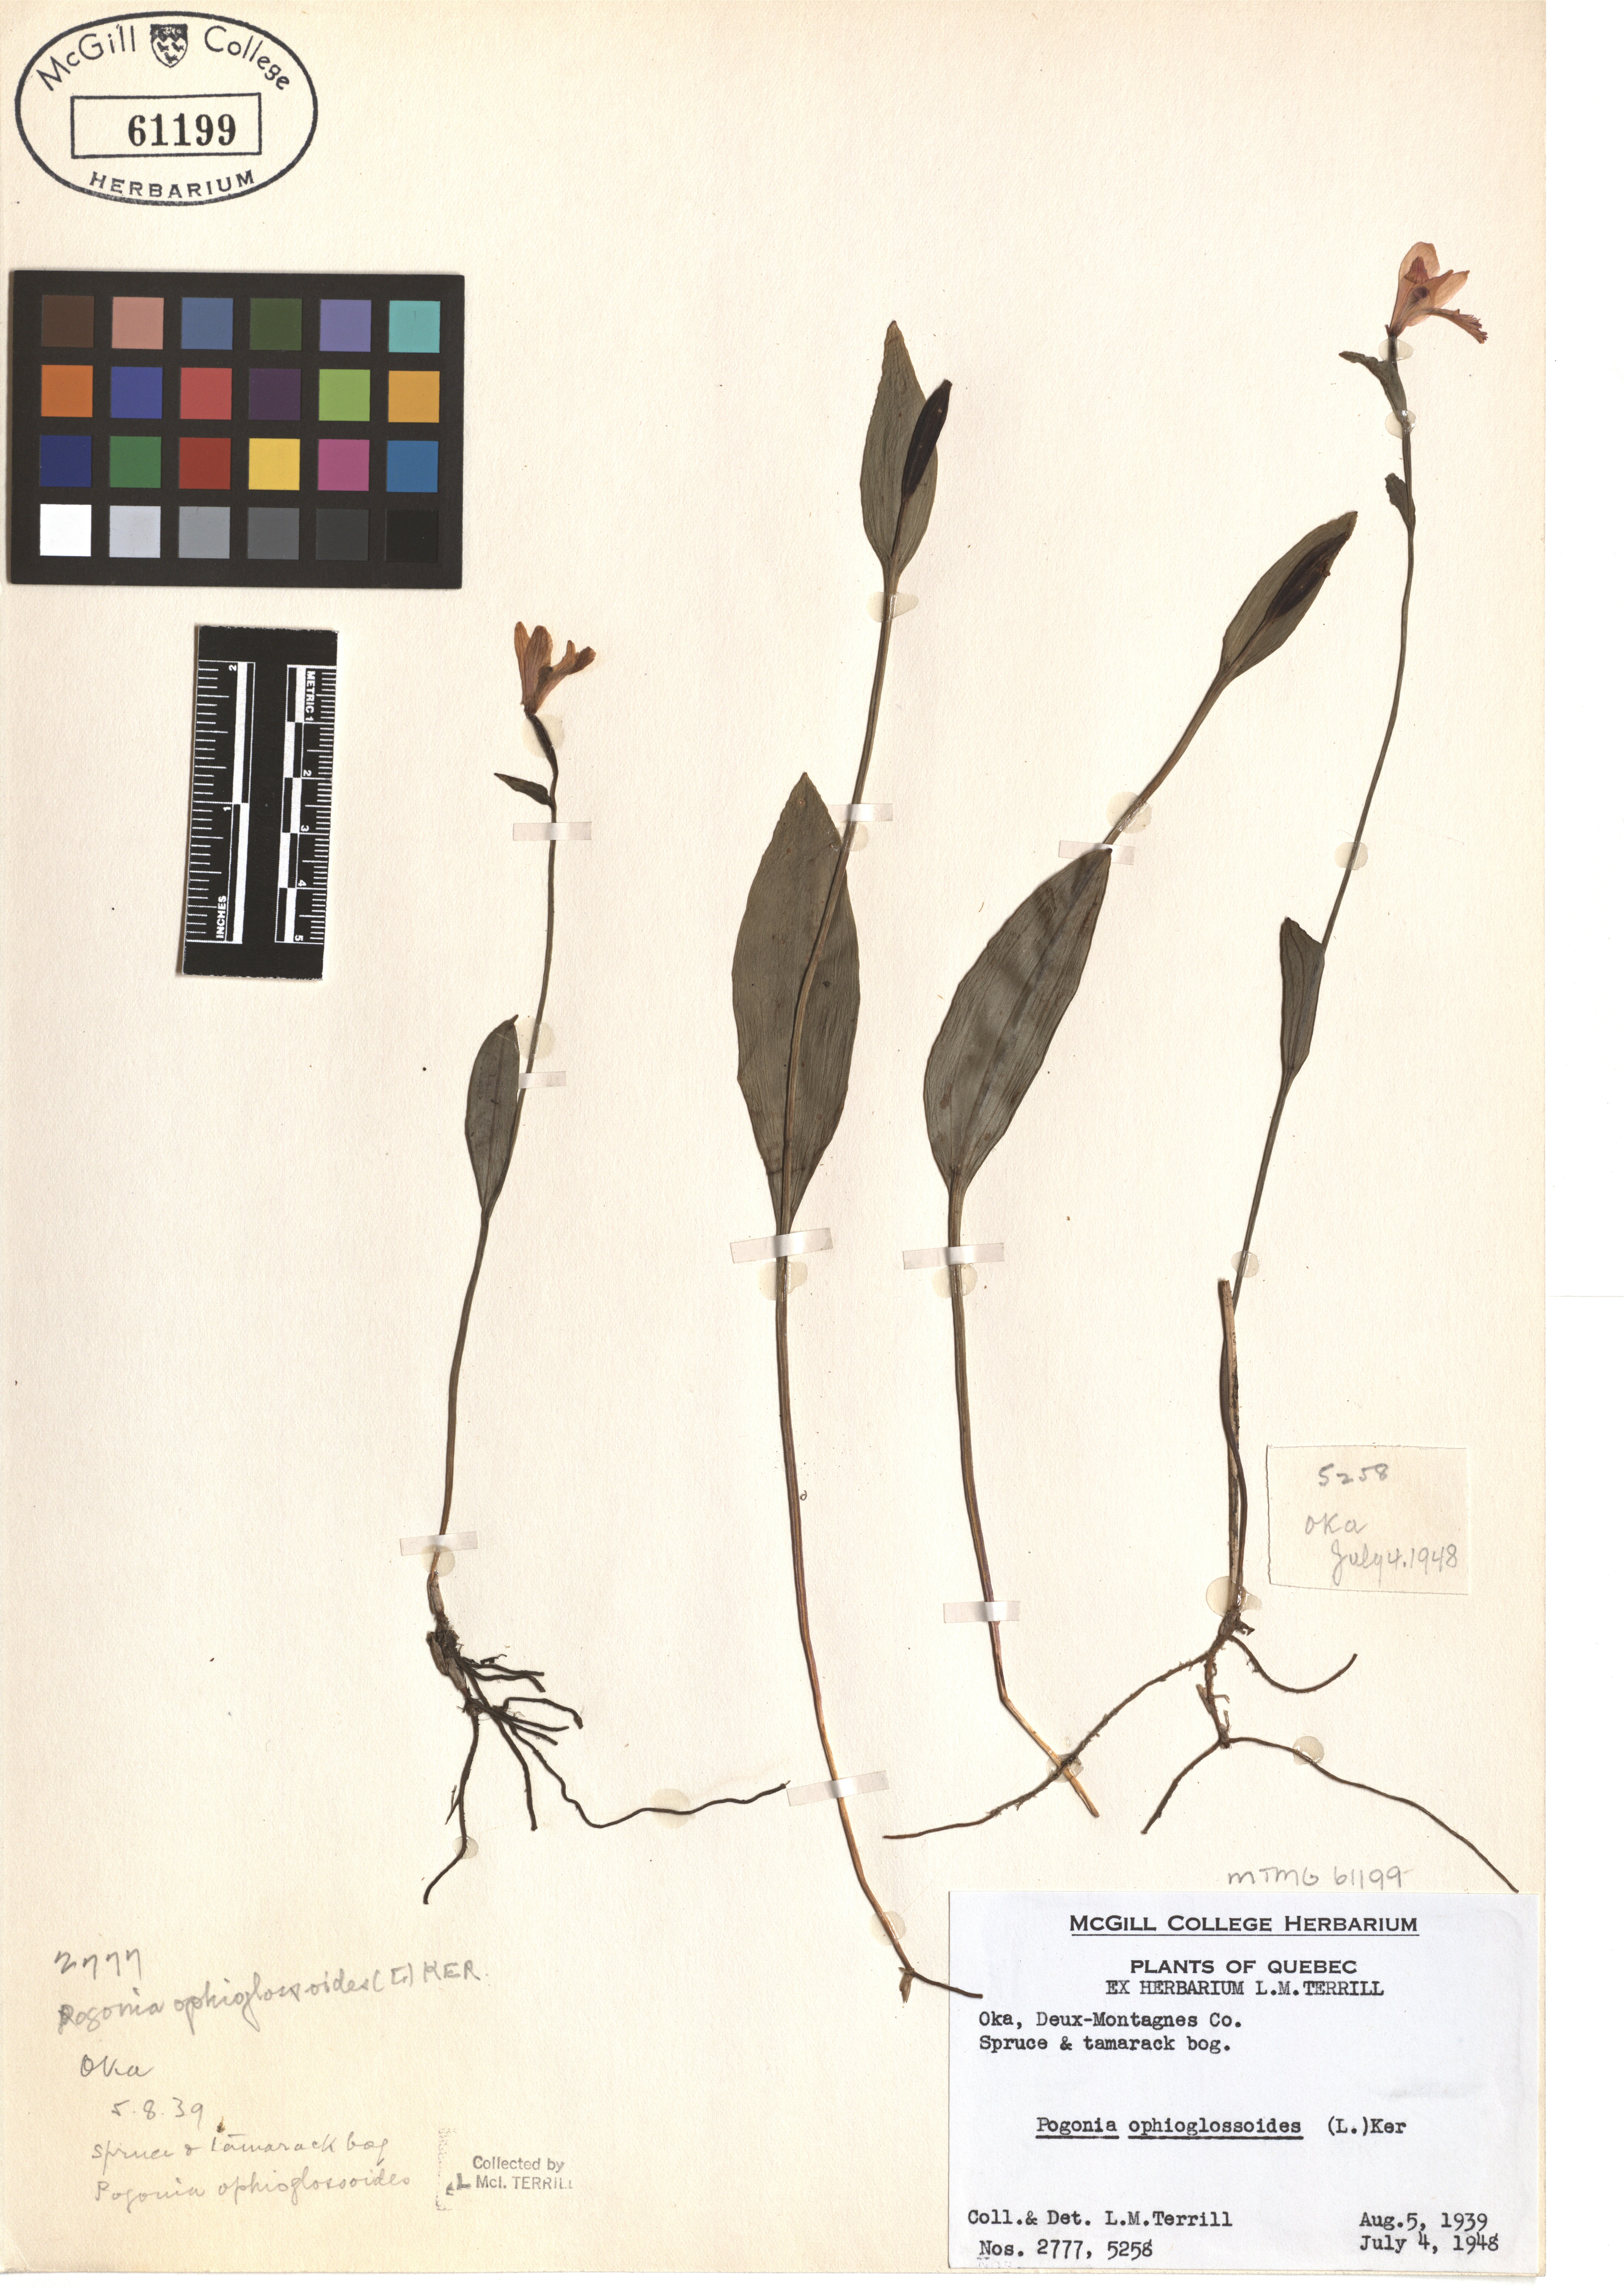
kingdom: Plantae
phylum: Tracheophyta
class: Liliopsida
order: Asparagales
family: Orchidaceae
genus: Pogonia
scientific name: Pogonia ophioglossoides
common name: Rose pogonia
